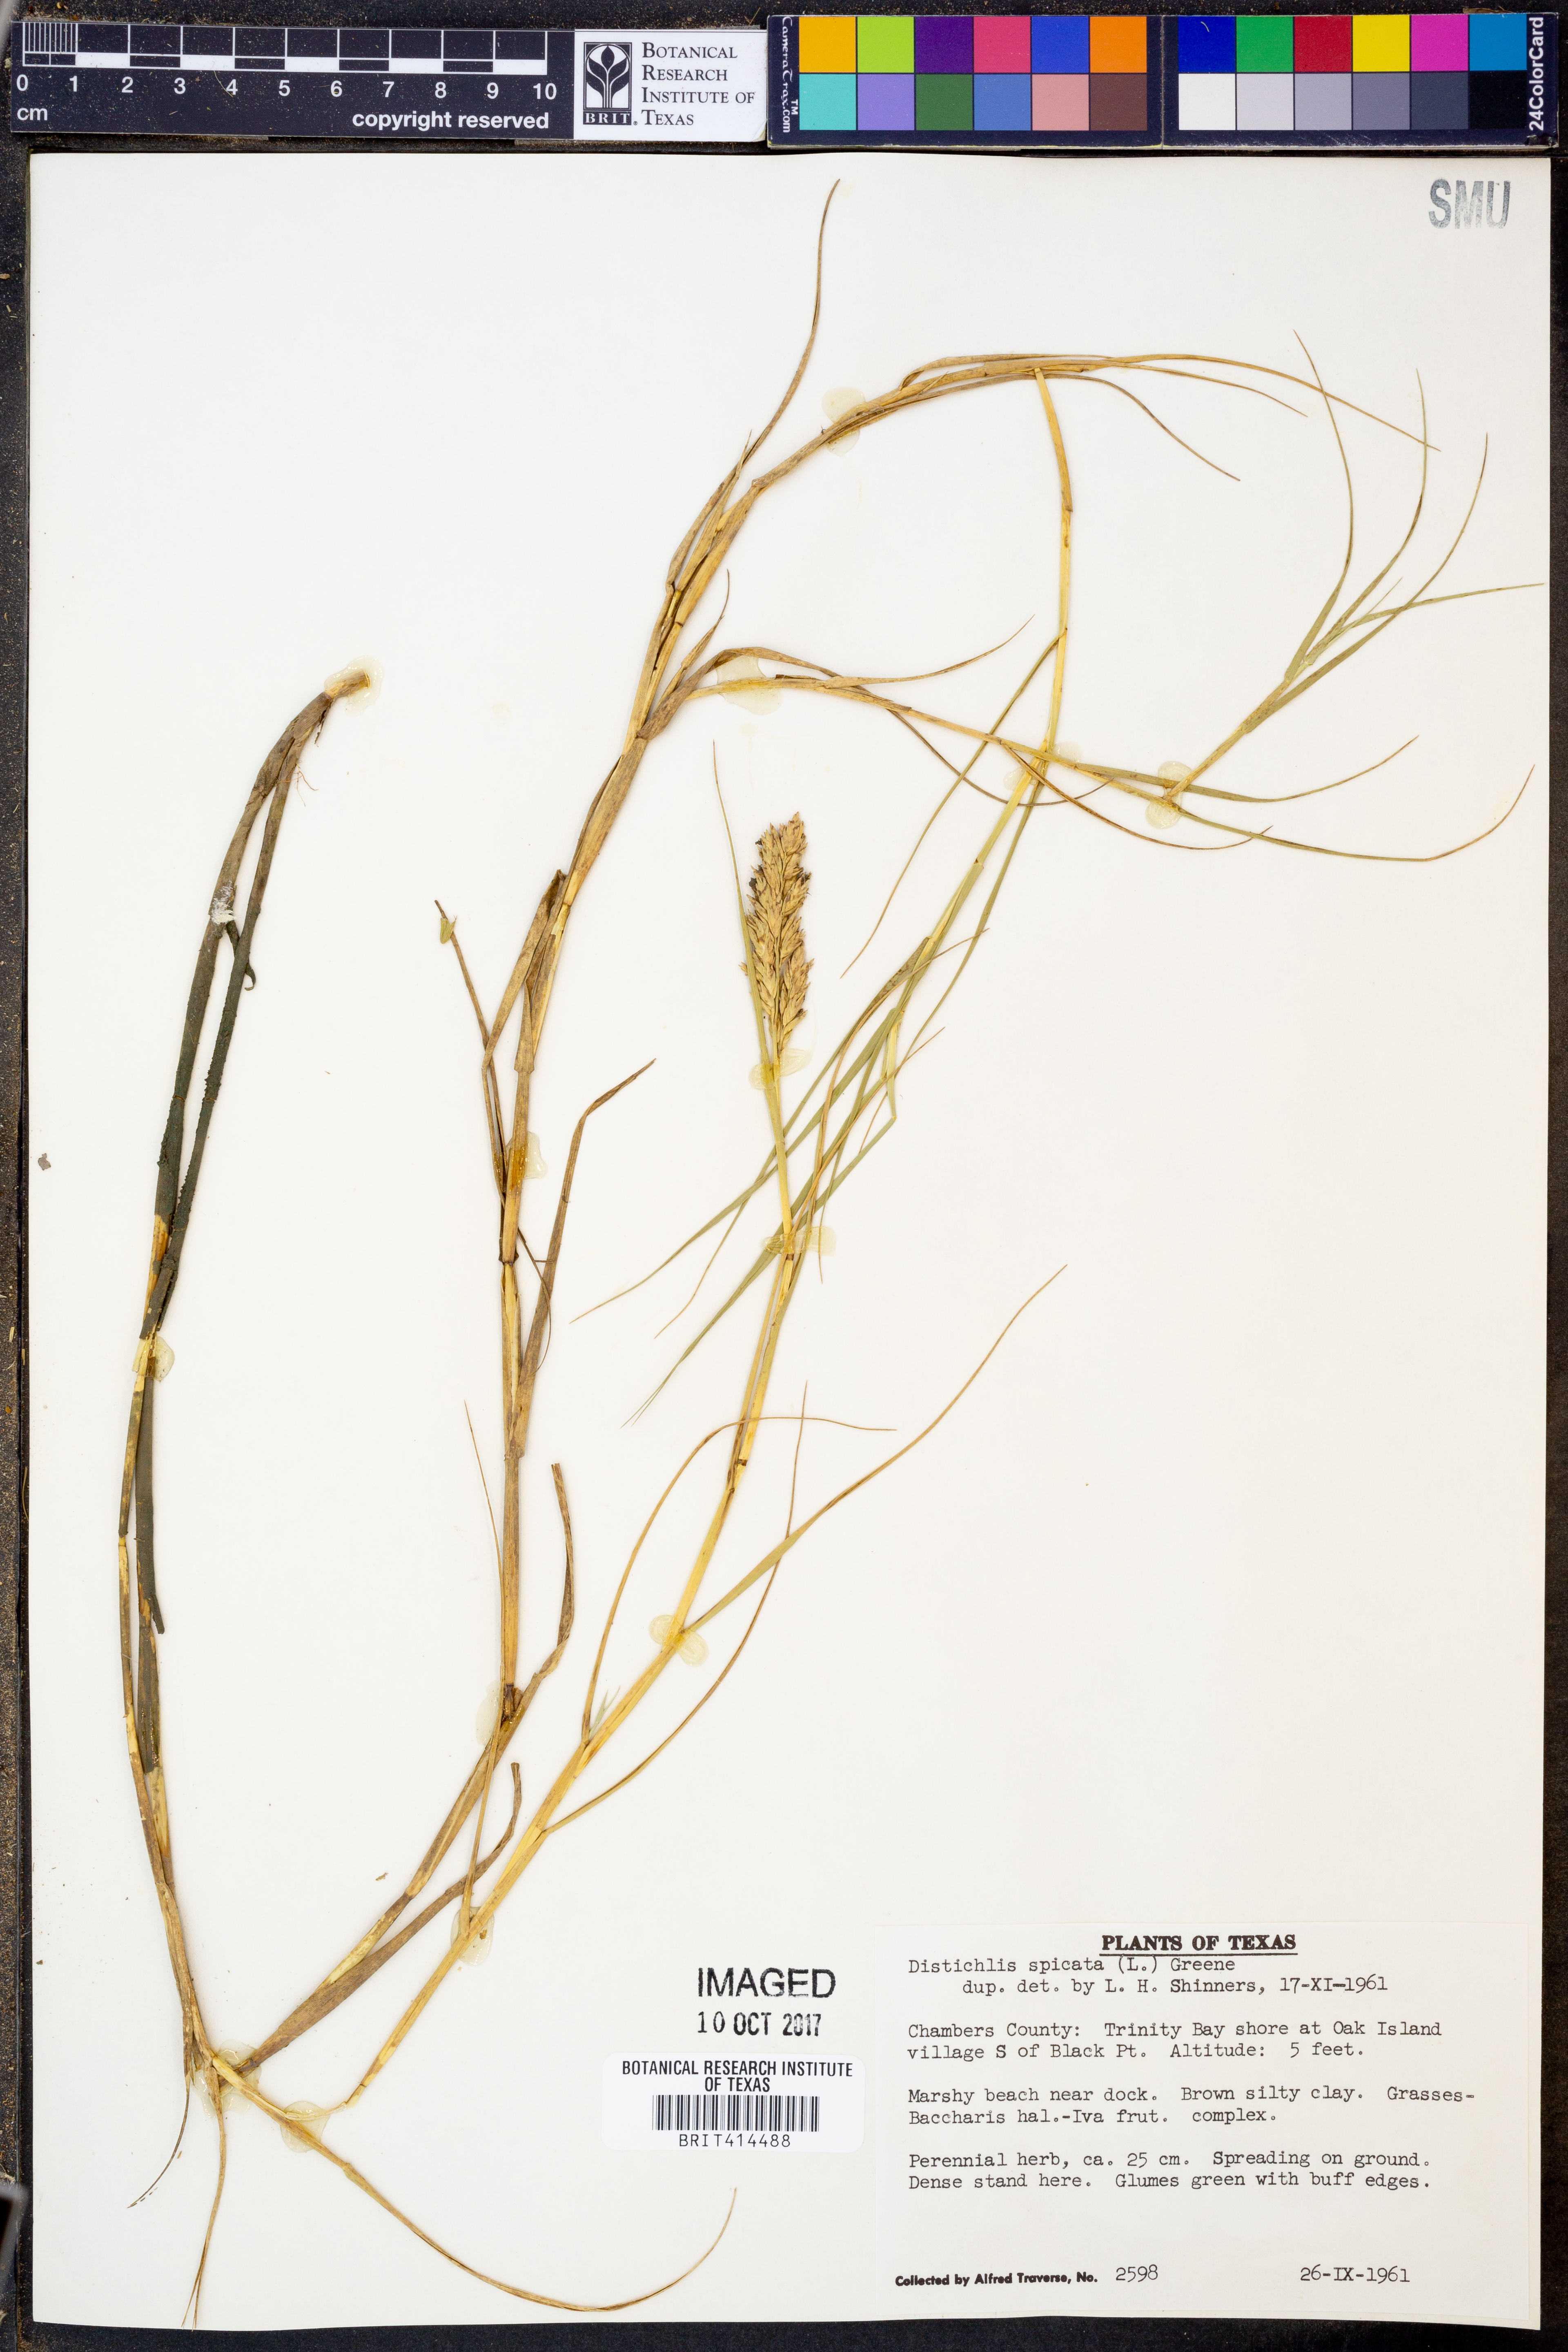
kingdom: Plantae
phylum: Tracheophyta
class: Liliopsida
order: Poales
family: Poaceae
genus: Distichlis
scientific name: Distichlis spicata
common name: Saltgrass
